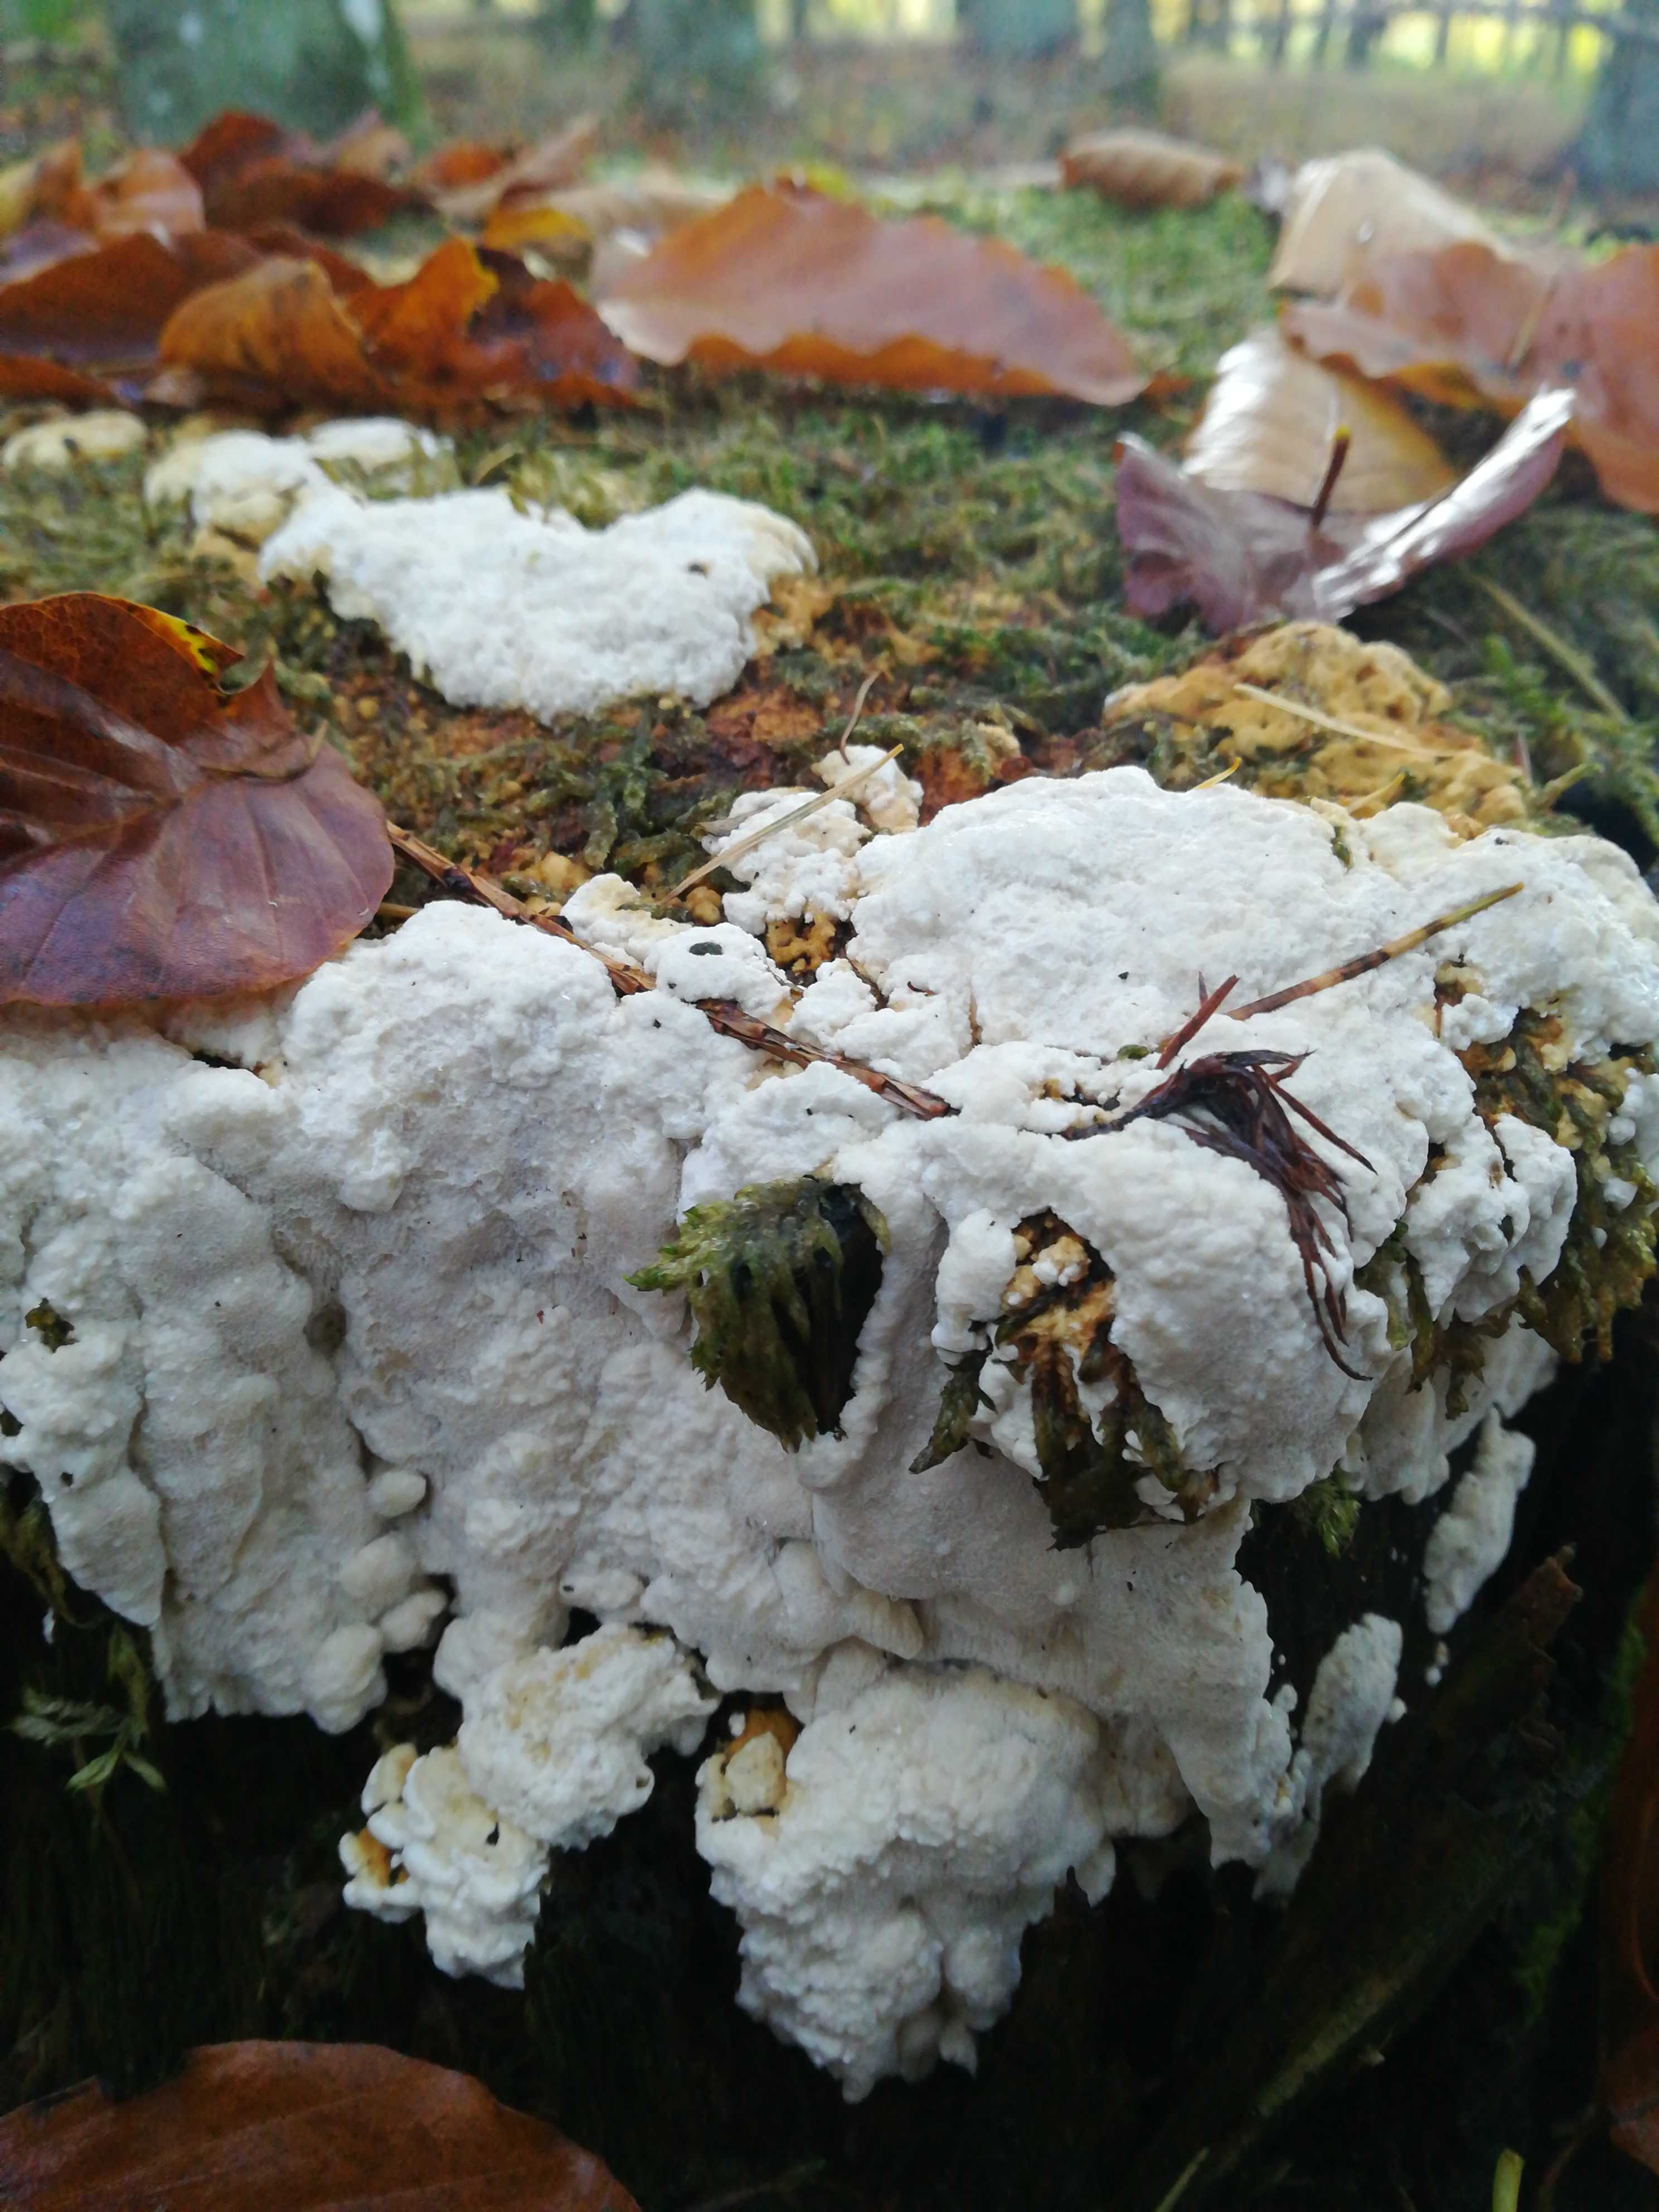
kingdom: Fungi
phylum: Basidiomycota
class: Agaricomycetes
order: Polyporales
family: Meruliaceae
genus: Physisporinus
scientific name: Physisporinus
